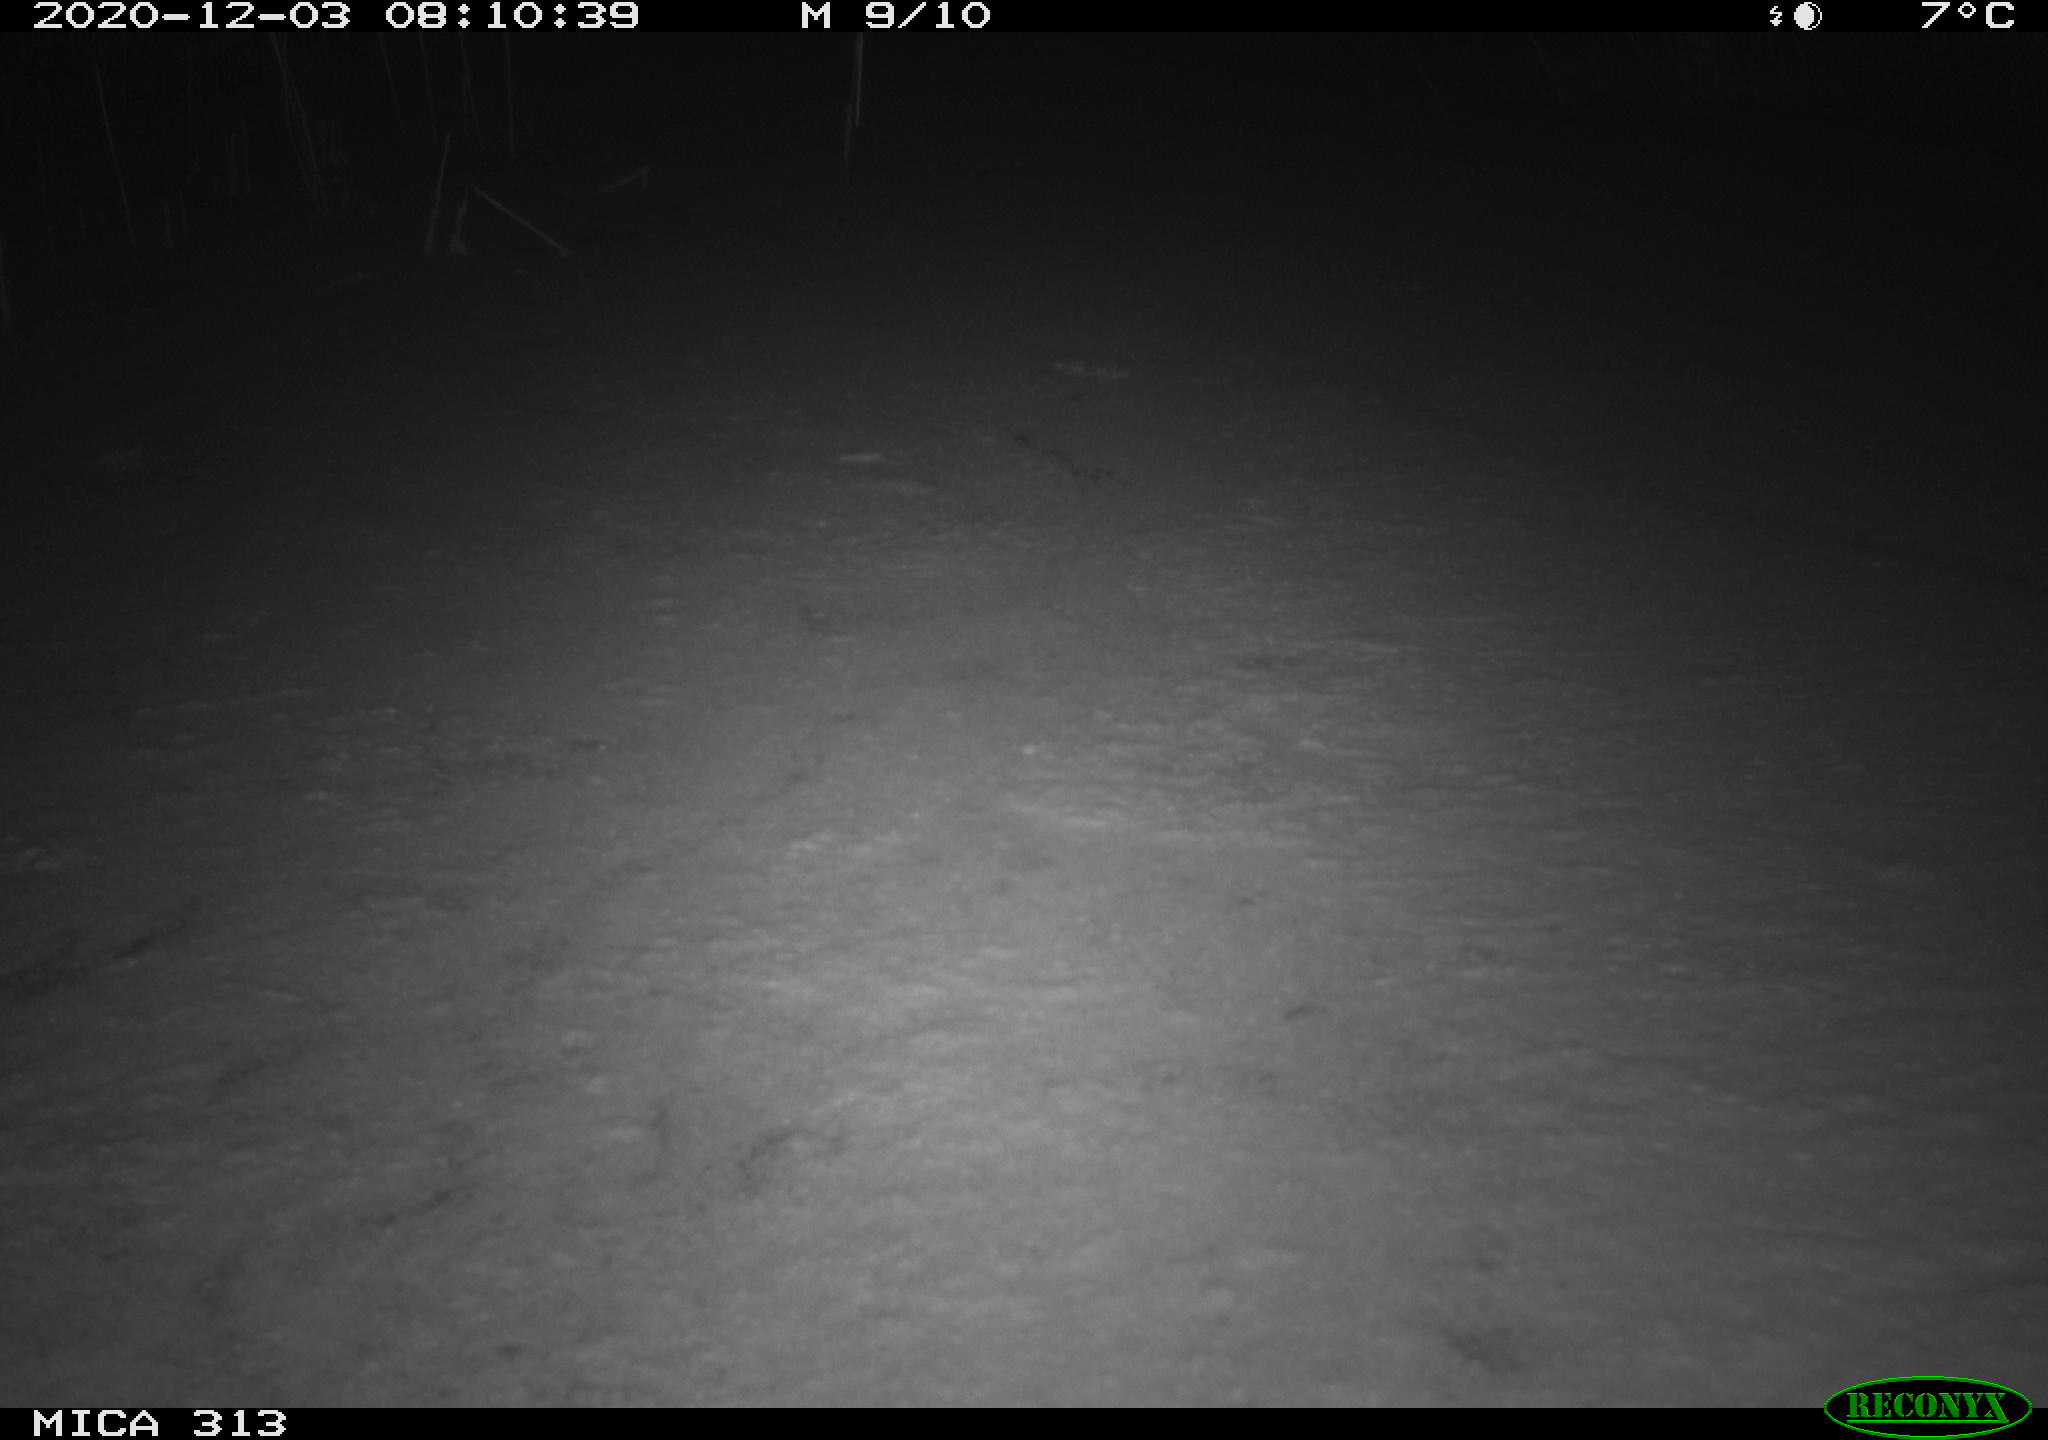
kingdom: Animalia
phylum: Chordata
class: Aves
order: Gruiformes
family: Rallidae
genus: Gallinula
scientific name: Gallinula chloropus
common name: Common moorhen
